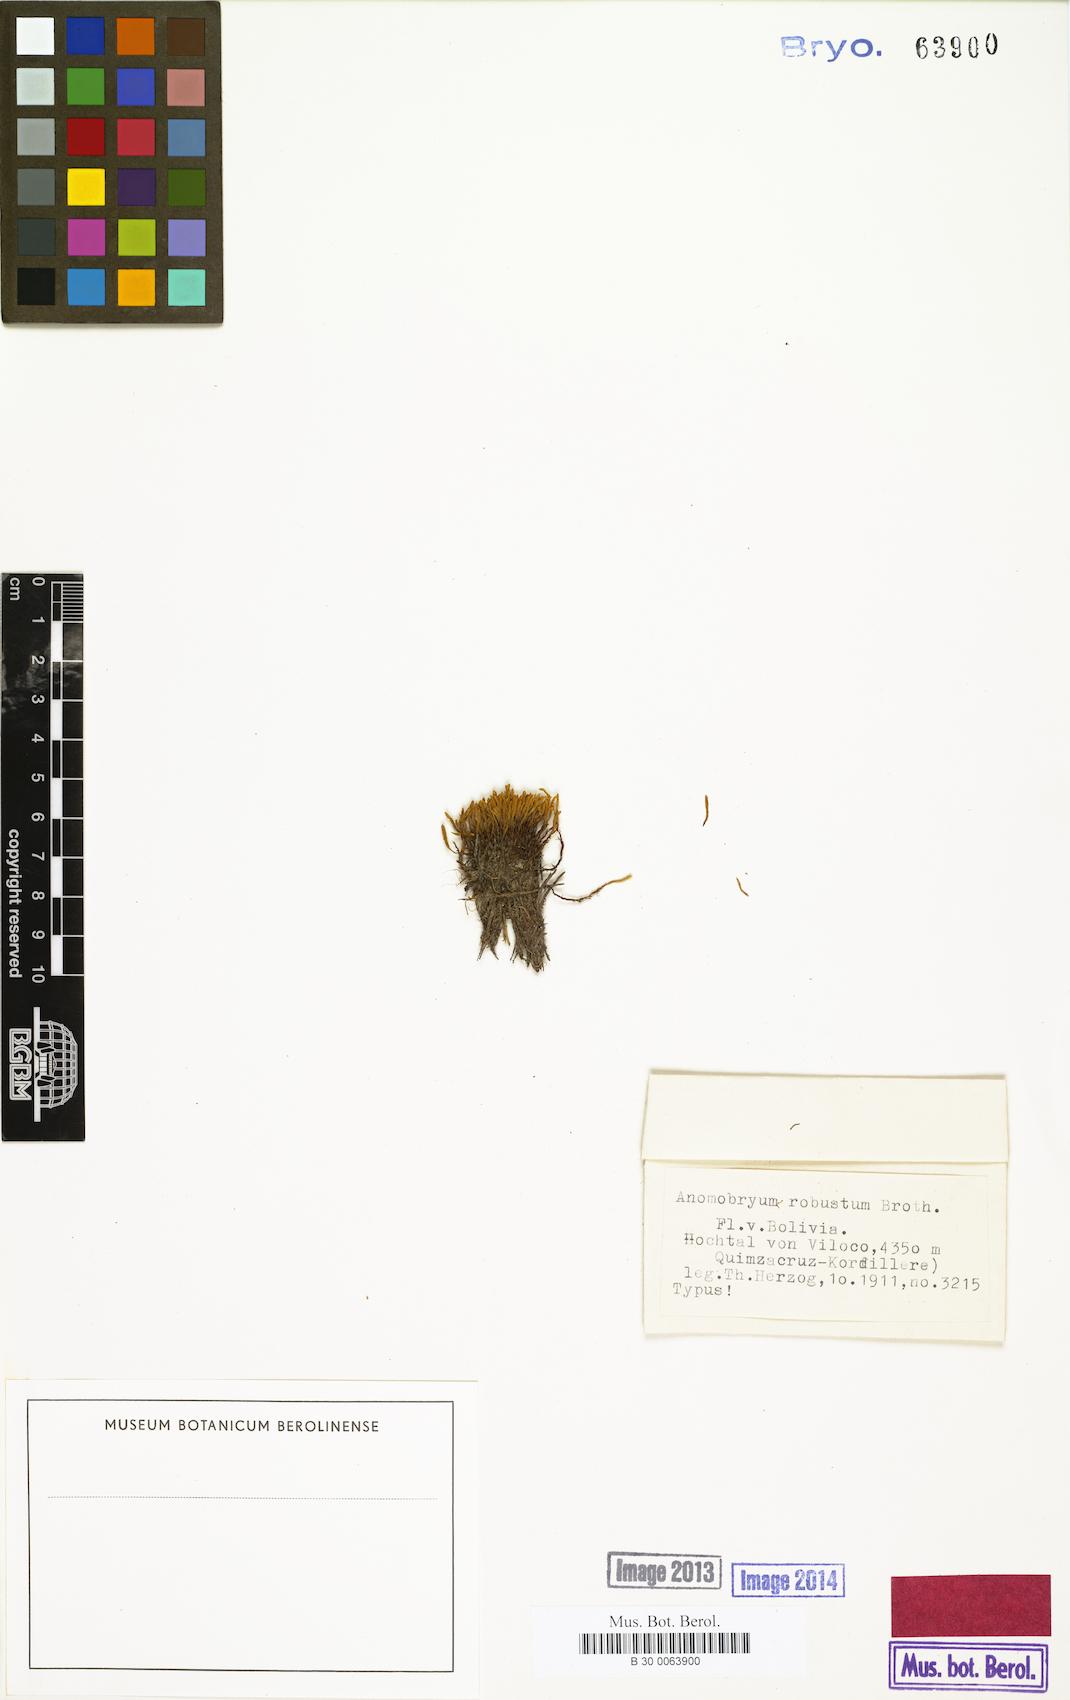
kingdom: Plantae
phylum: Bryophyta
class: Bryopsida
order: Bryales
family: Bryaceae
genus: Anomobryum
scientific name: Anomobryum robustum
